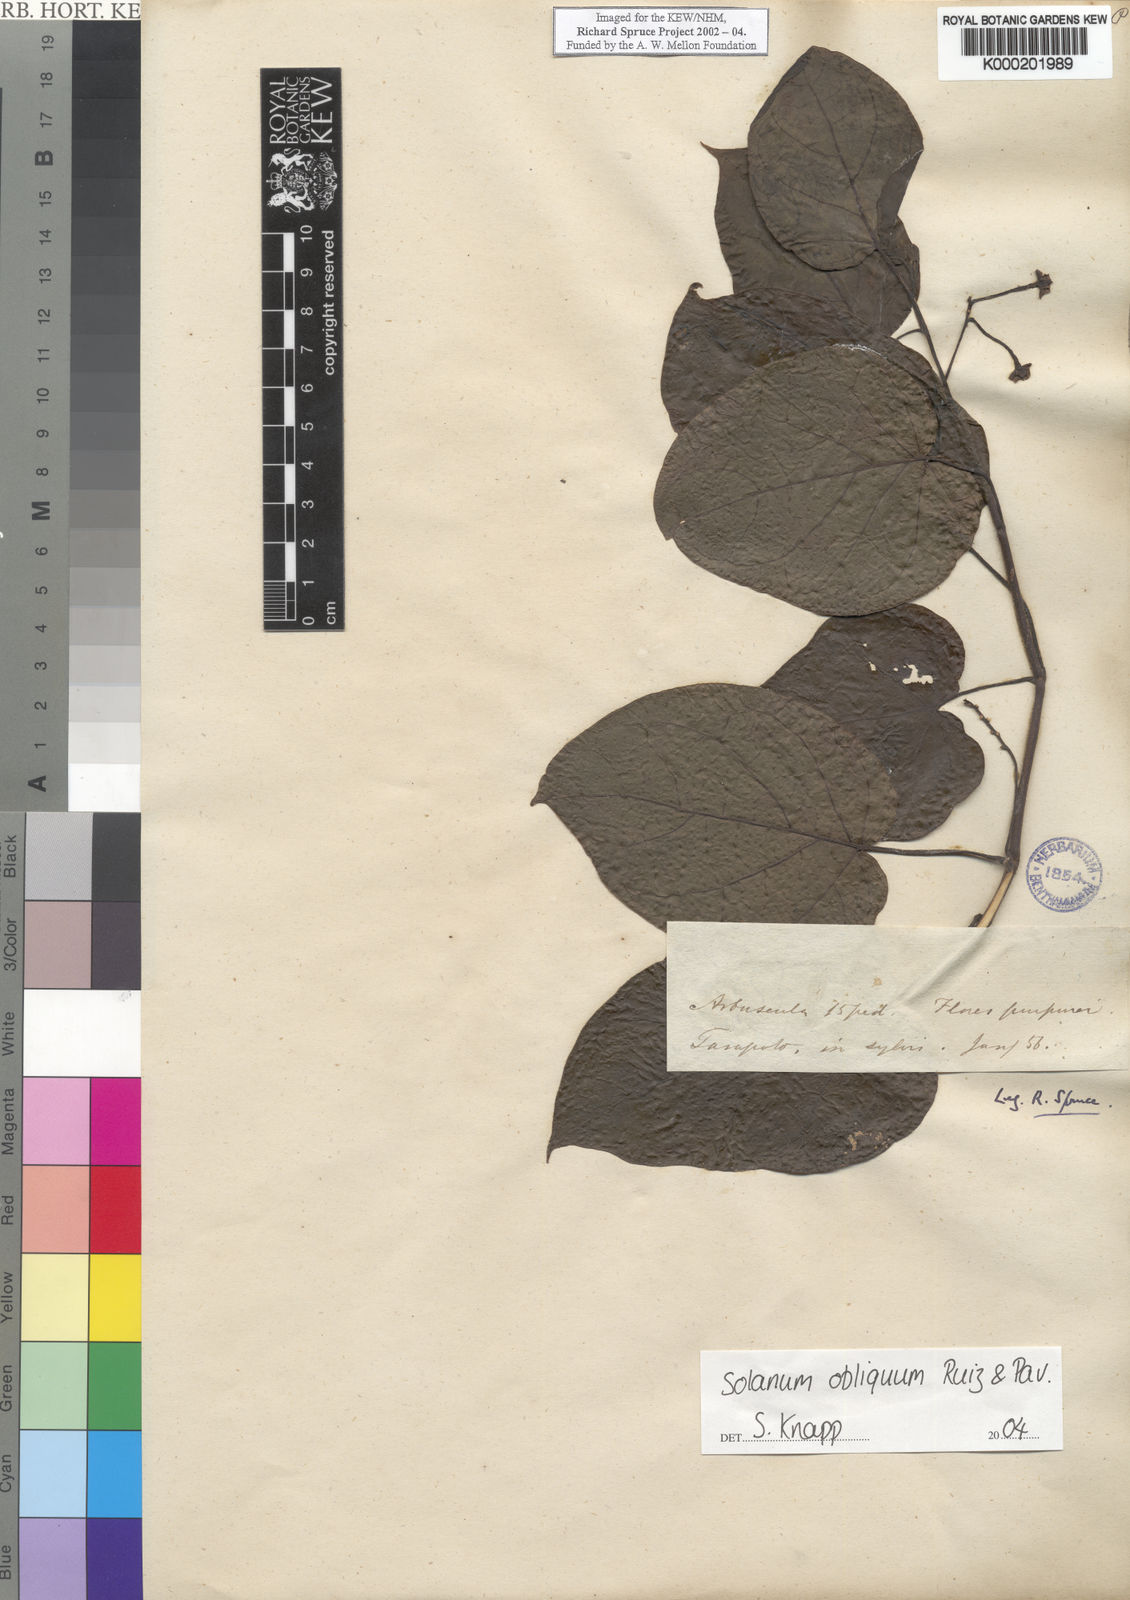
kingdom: Plantae
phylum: Tracheophyta
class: Magnoliopsida
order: Solanales
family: Solanaceae
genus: Solanum
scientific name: Solanum obliquum
